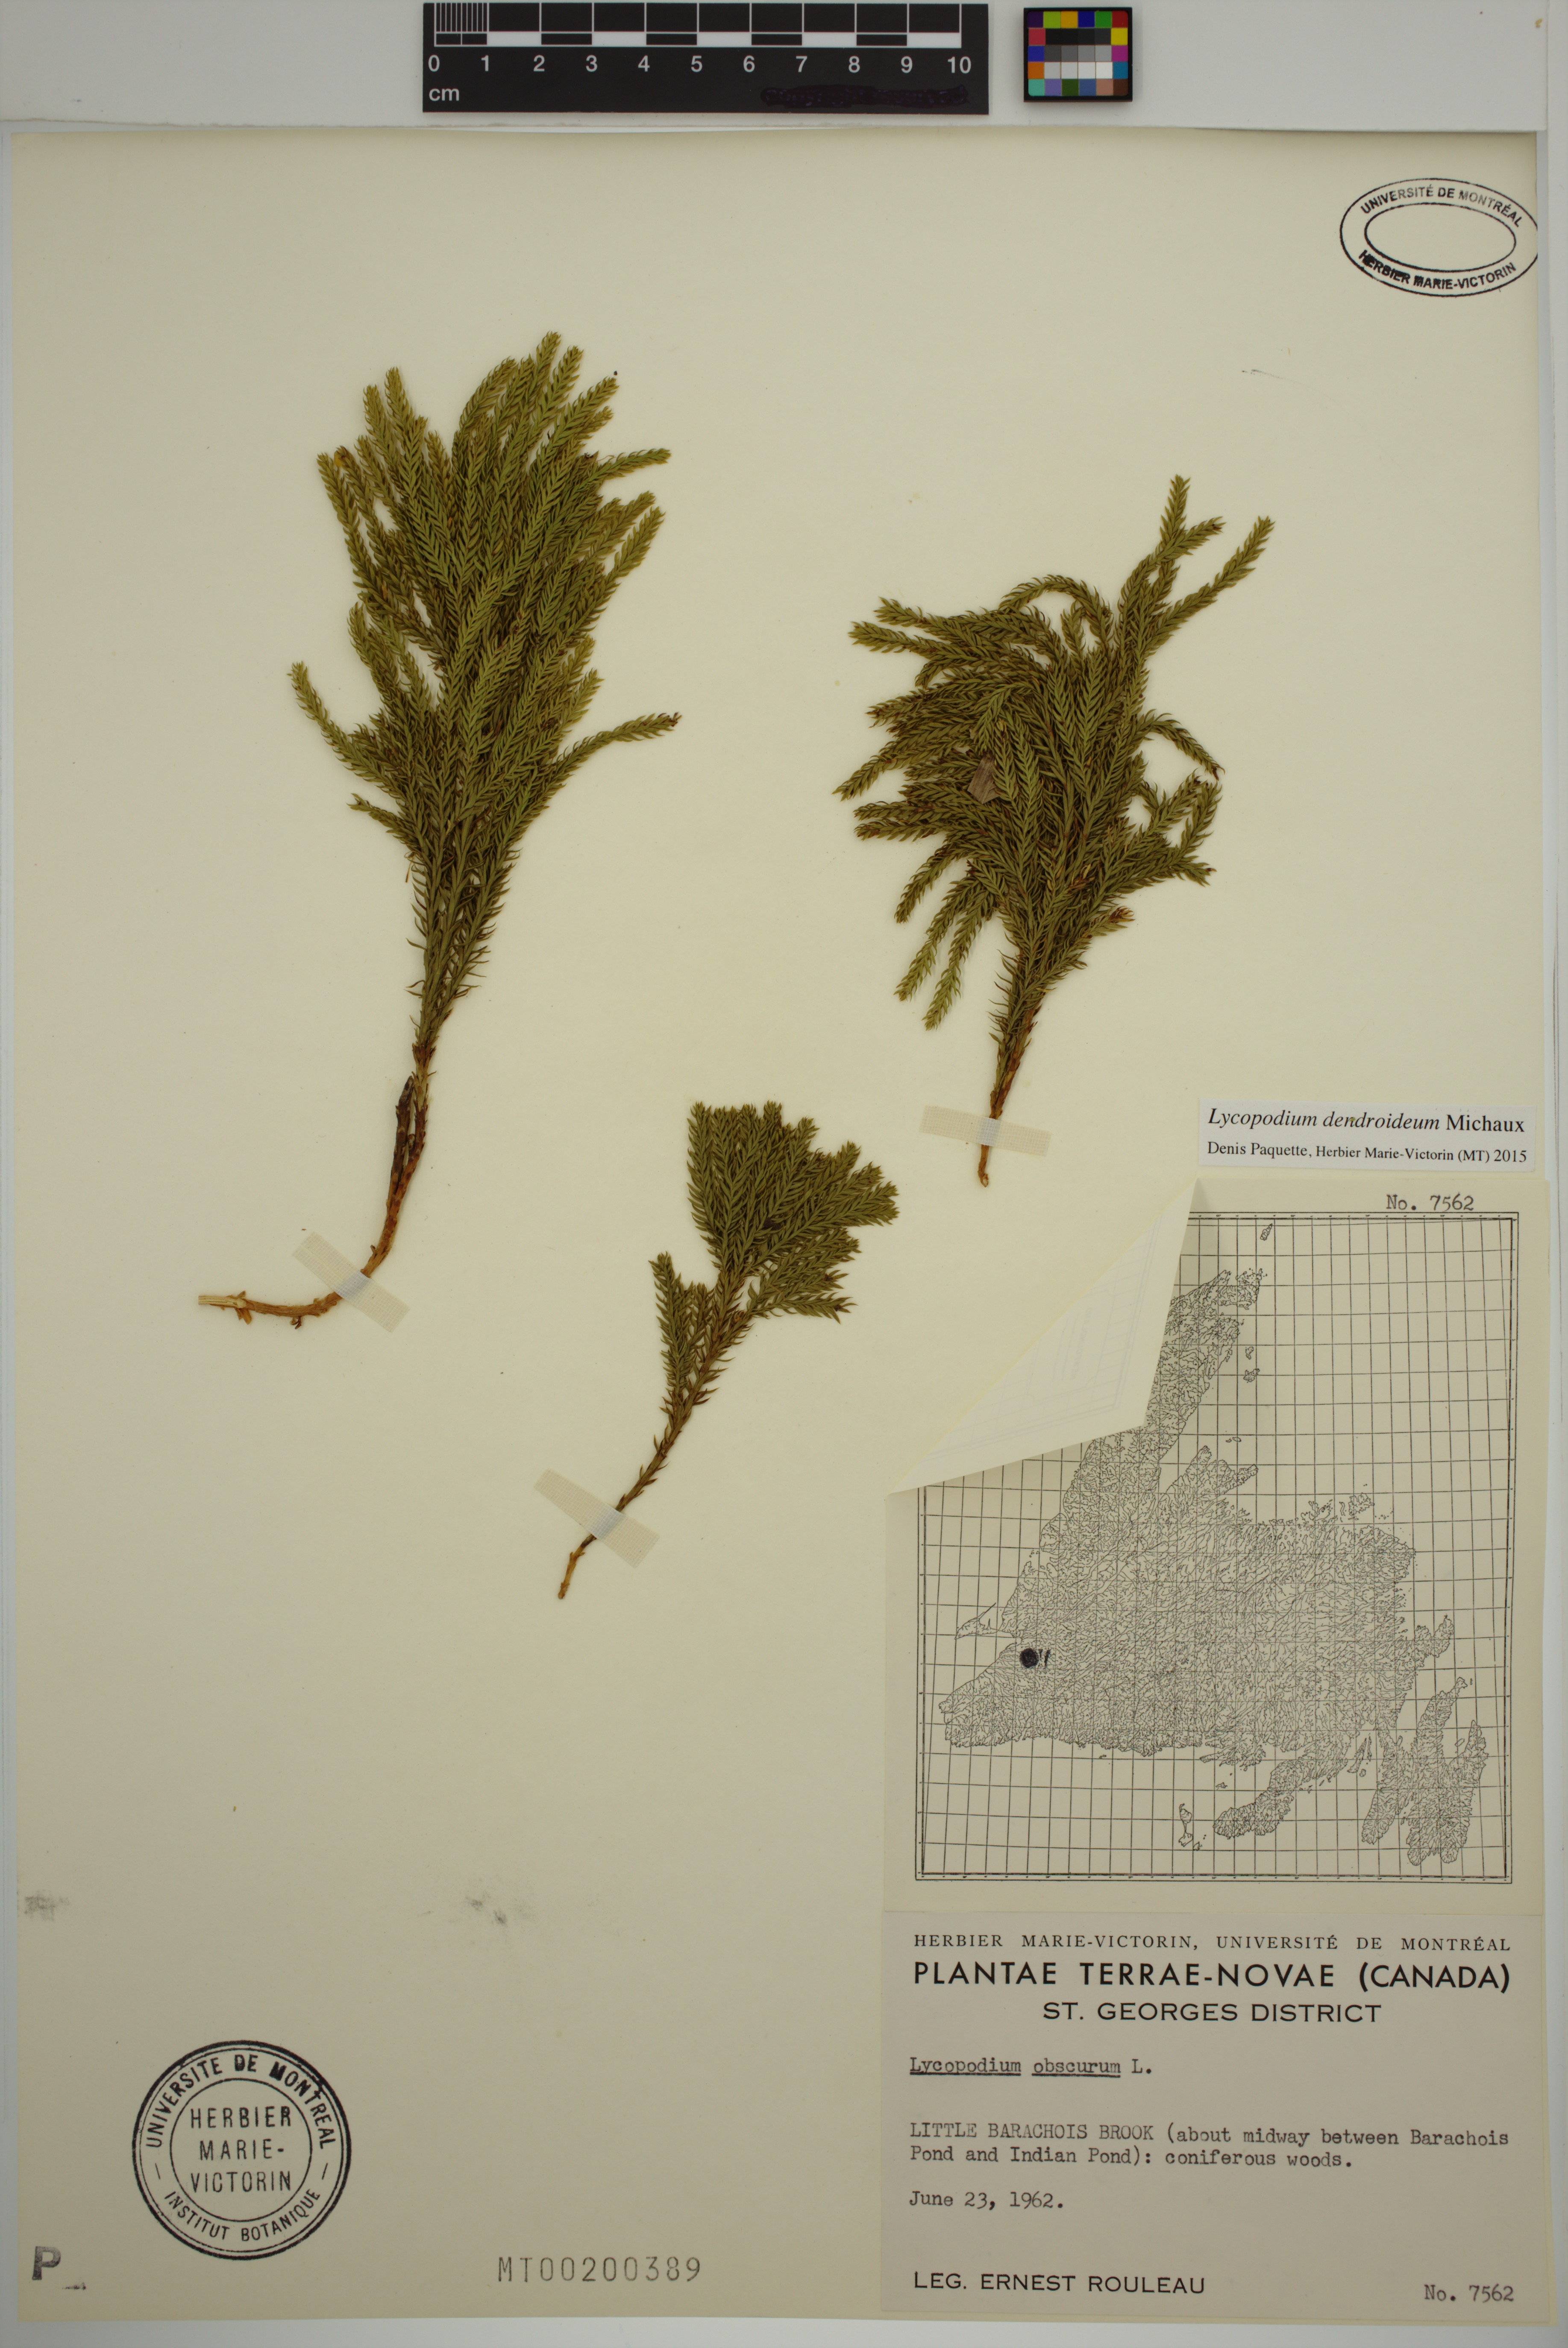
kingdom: Plantae
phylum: Tracheophyta
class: Lycopodiopsida
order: Lycopodiales
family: Lycopodiaceae
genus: Dendrolycopodium
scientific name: Dendrolycopodium dendroideum
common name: Northern tree-clubmoss
